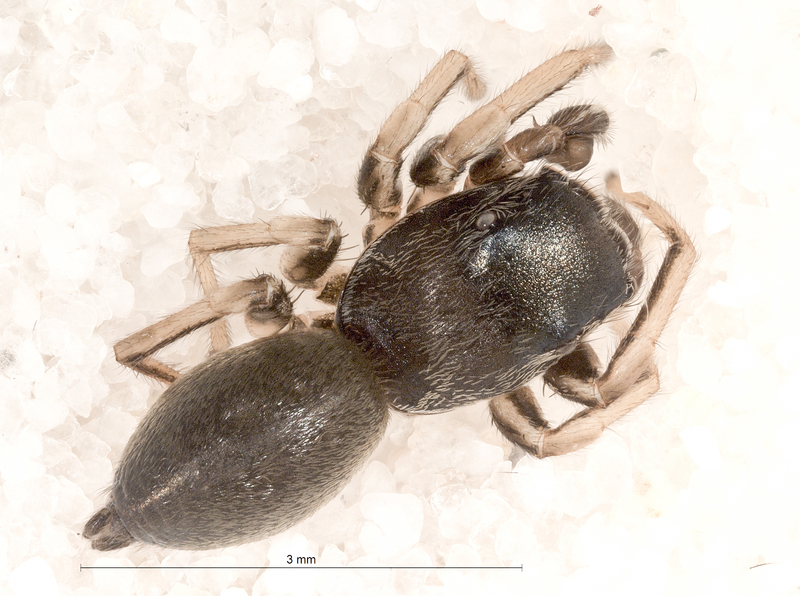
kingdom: Animalia
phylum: Arthropoda
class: Arachnida
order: Araneae
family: Salticidae
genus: Heliophanus
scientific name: Heliophanus cupreus
